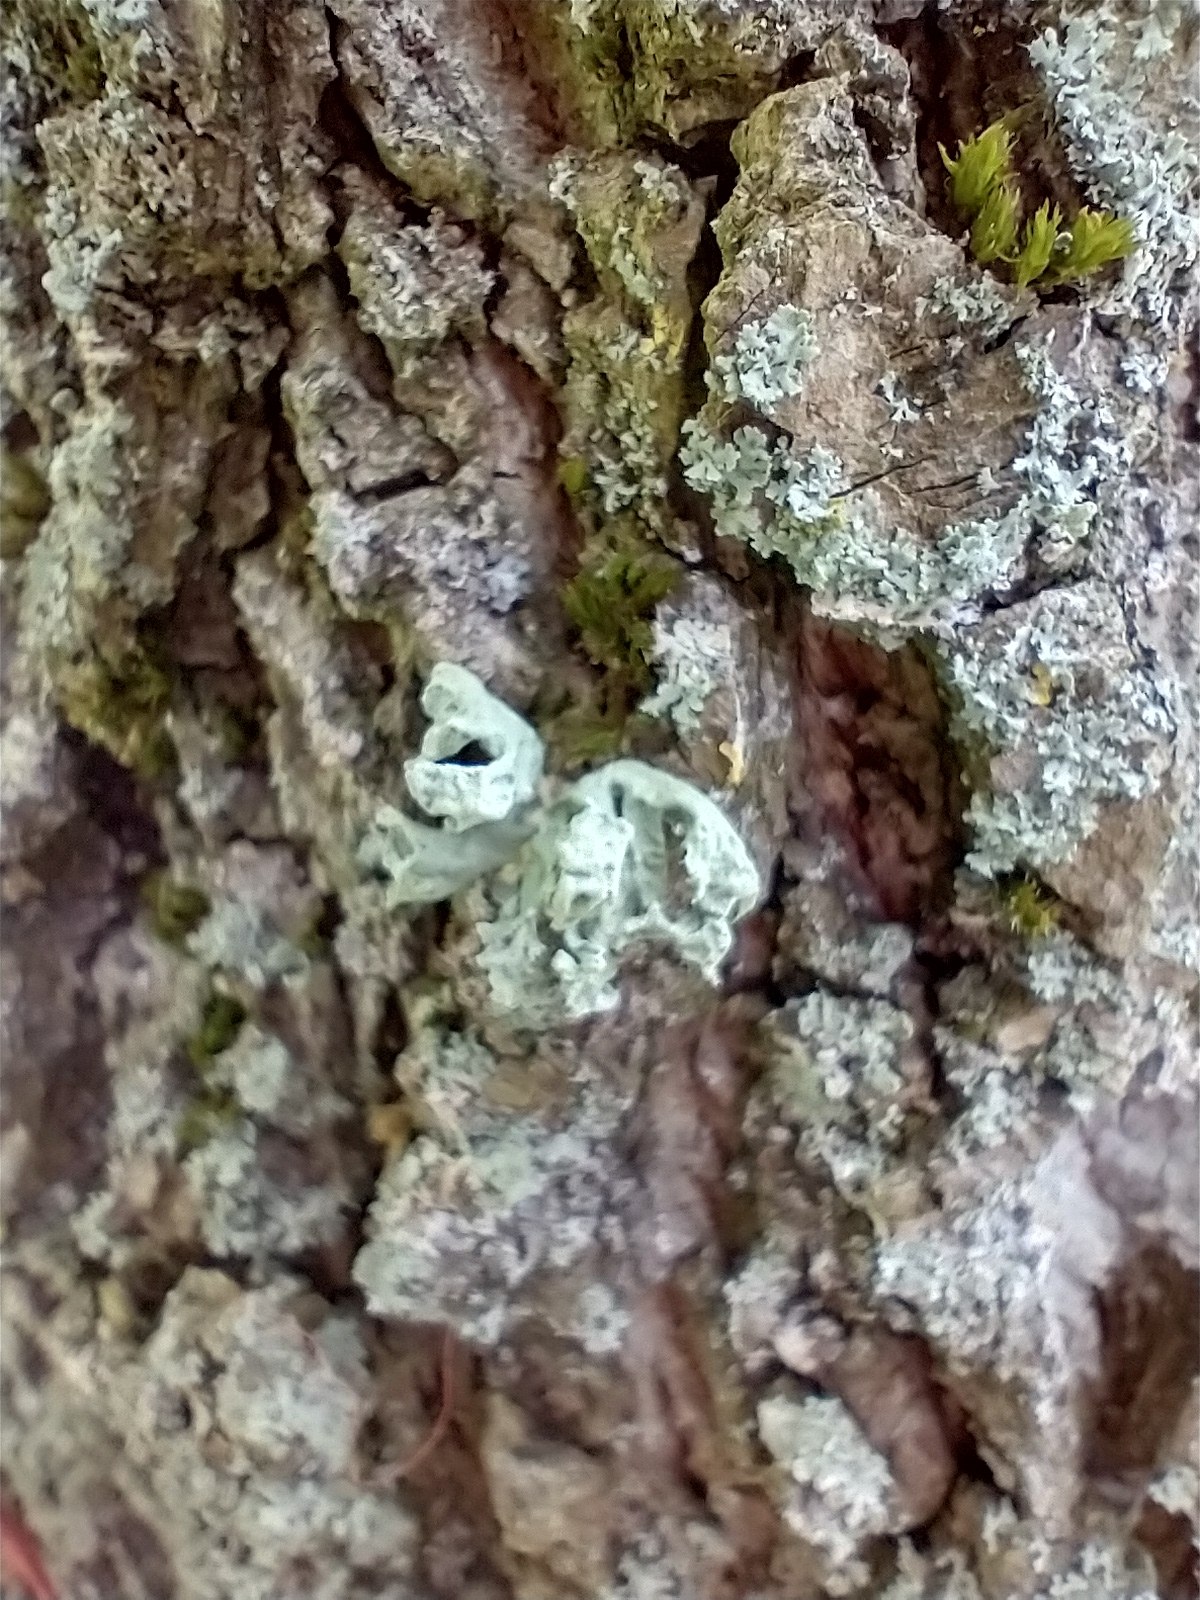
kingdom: Fungi
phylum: Ascomycota
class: Lecanoromycetes
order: Lecanorales
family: Ramalinaceae
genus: Ramalina
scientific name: Ramalina fastigiata
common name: Tue-grenlav
